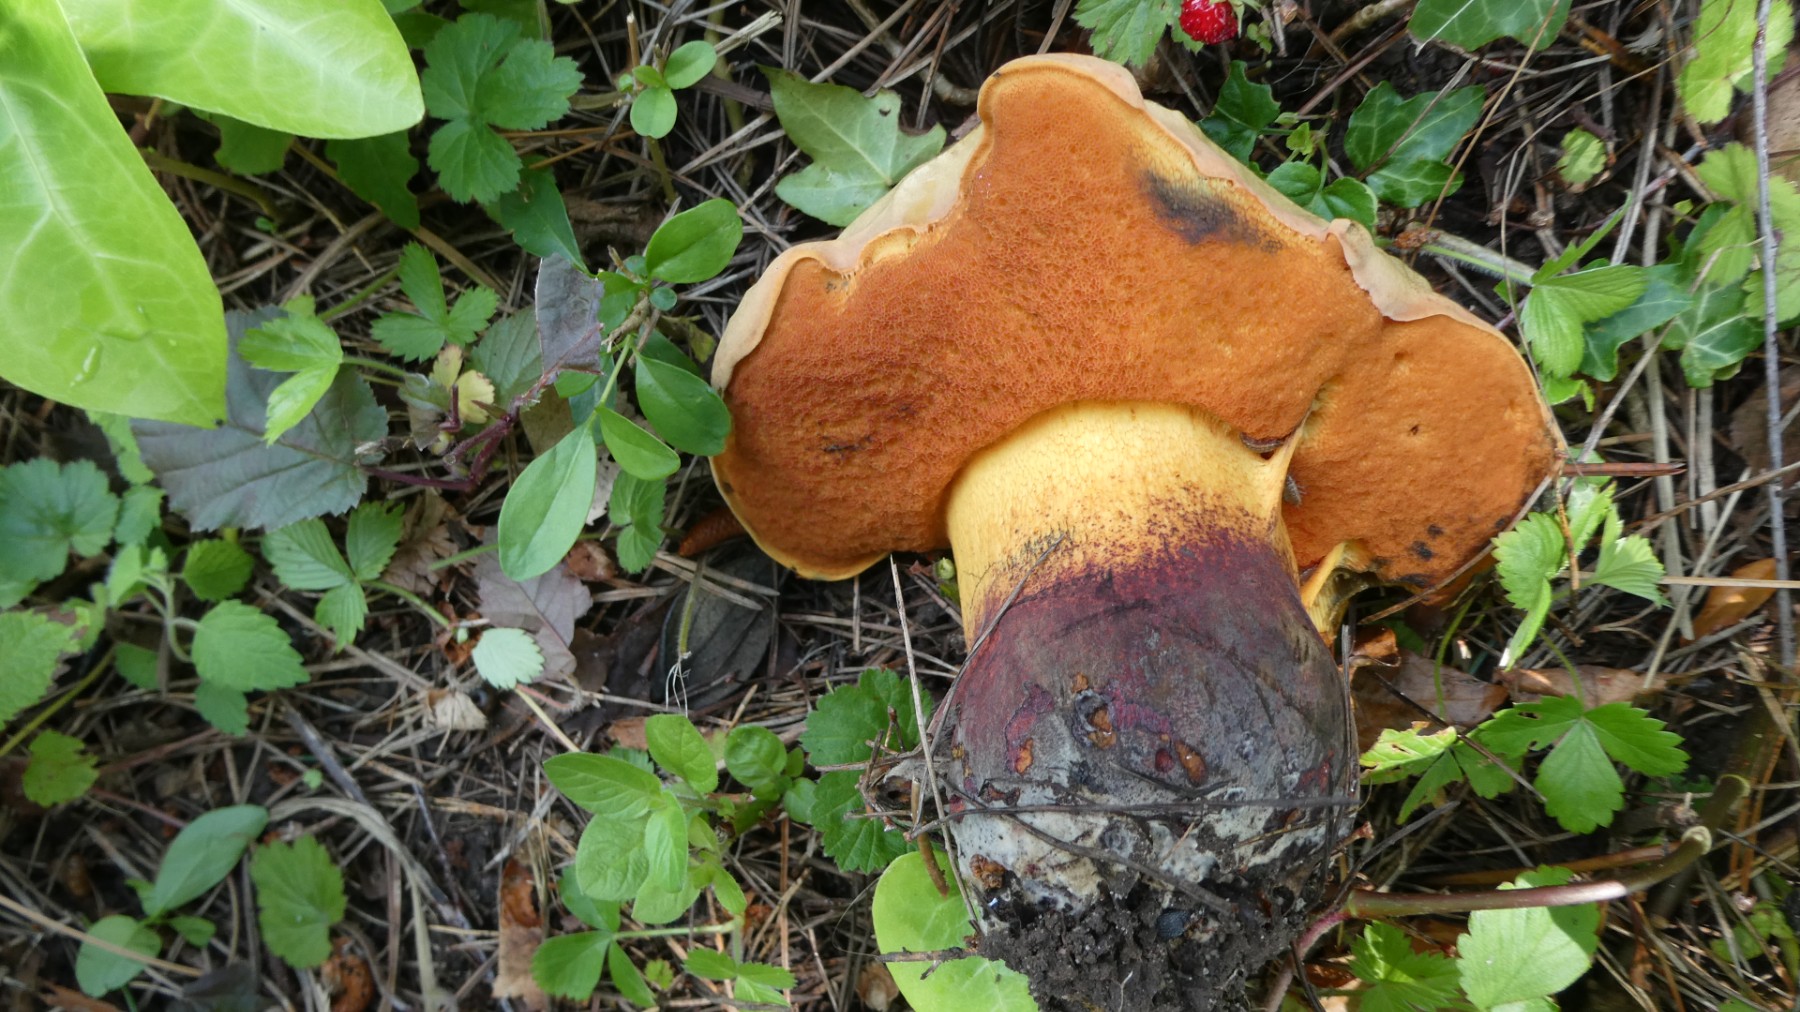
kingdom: Fungi
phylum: Basidiomycota
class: Agaricomycetes
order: Boletales
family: Boletaceae
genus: Suillellus
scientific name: Suillellus luridus
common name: netstokket indigorørhat
